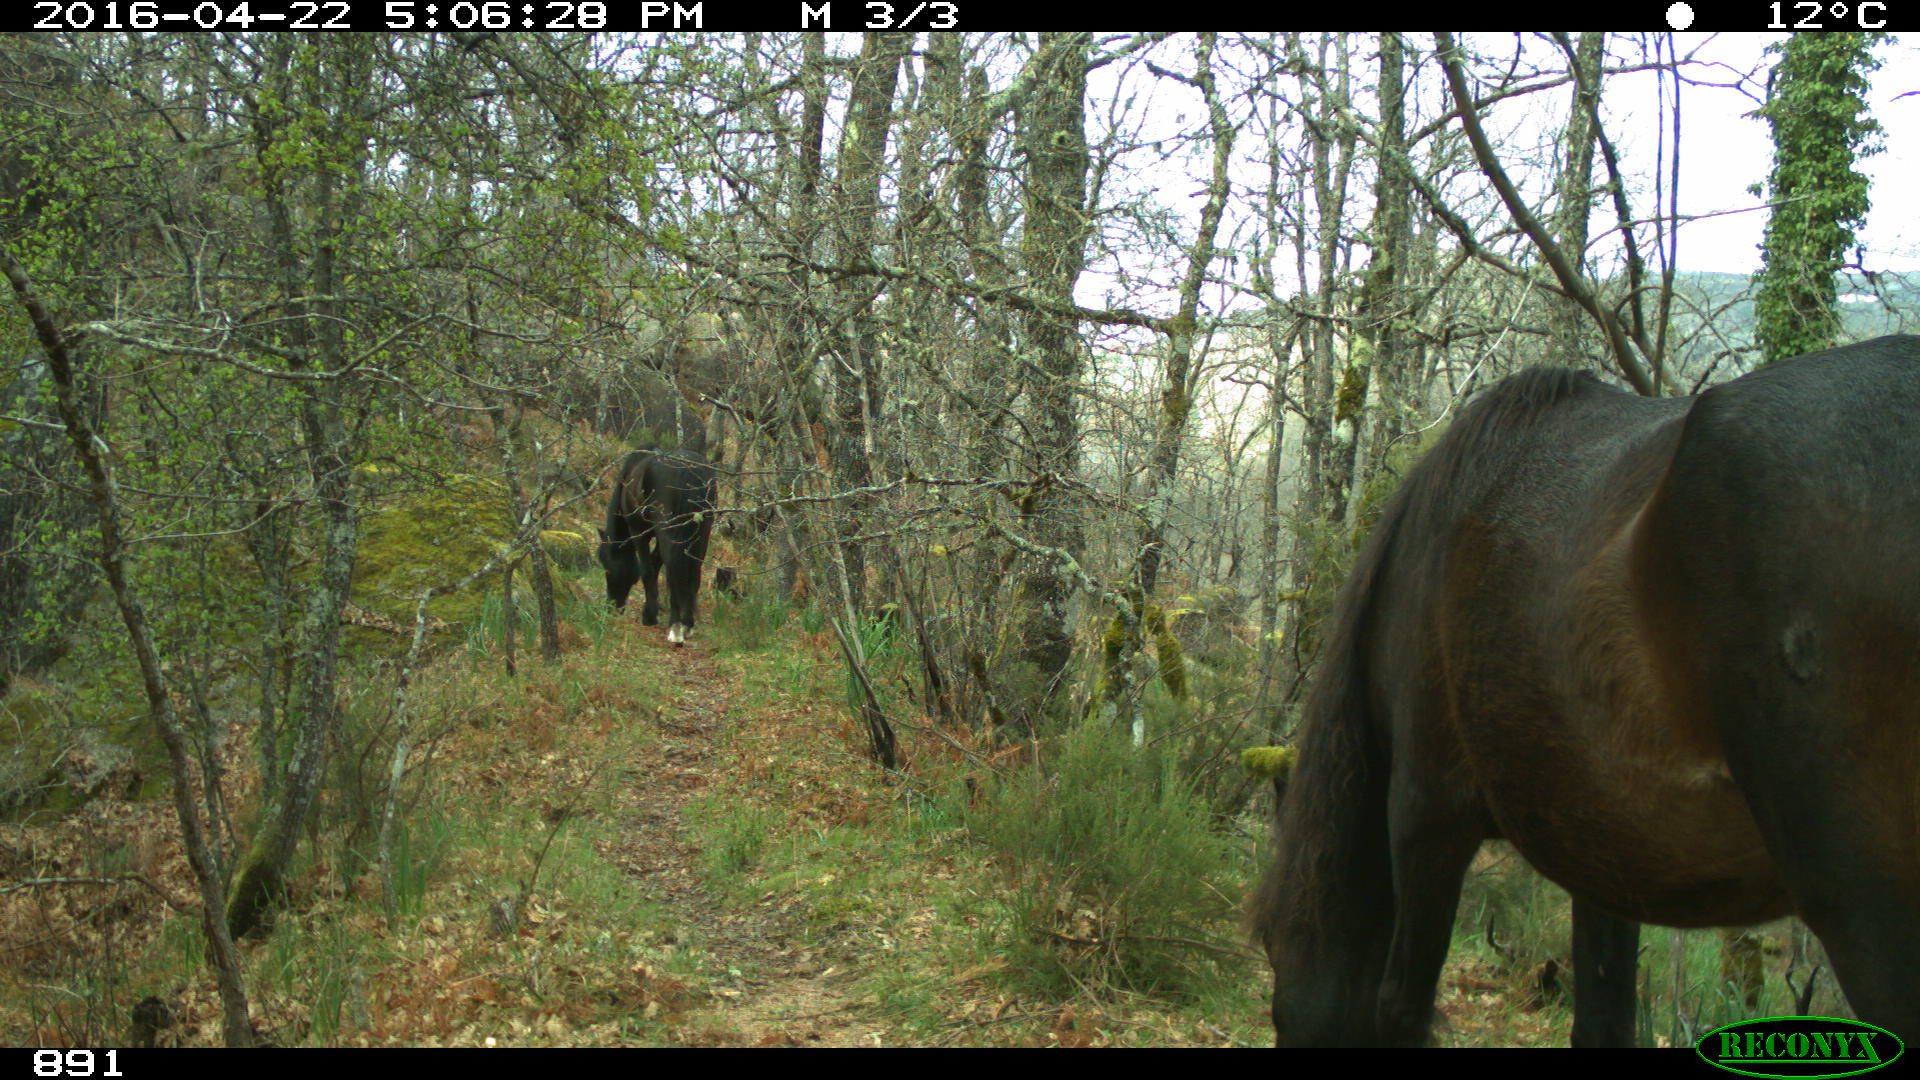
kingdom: Animalia
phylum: Chordata
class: Mammalia
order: Perissodactyla
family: Equidae
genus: Equus
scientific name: Equus caballus
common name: Horse
